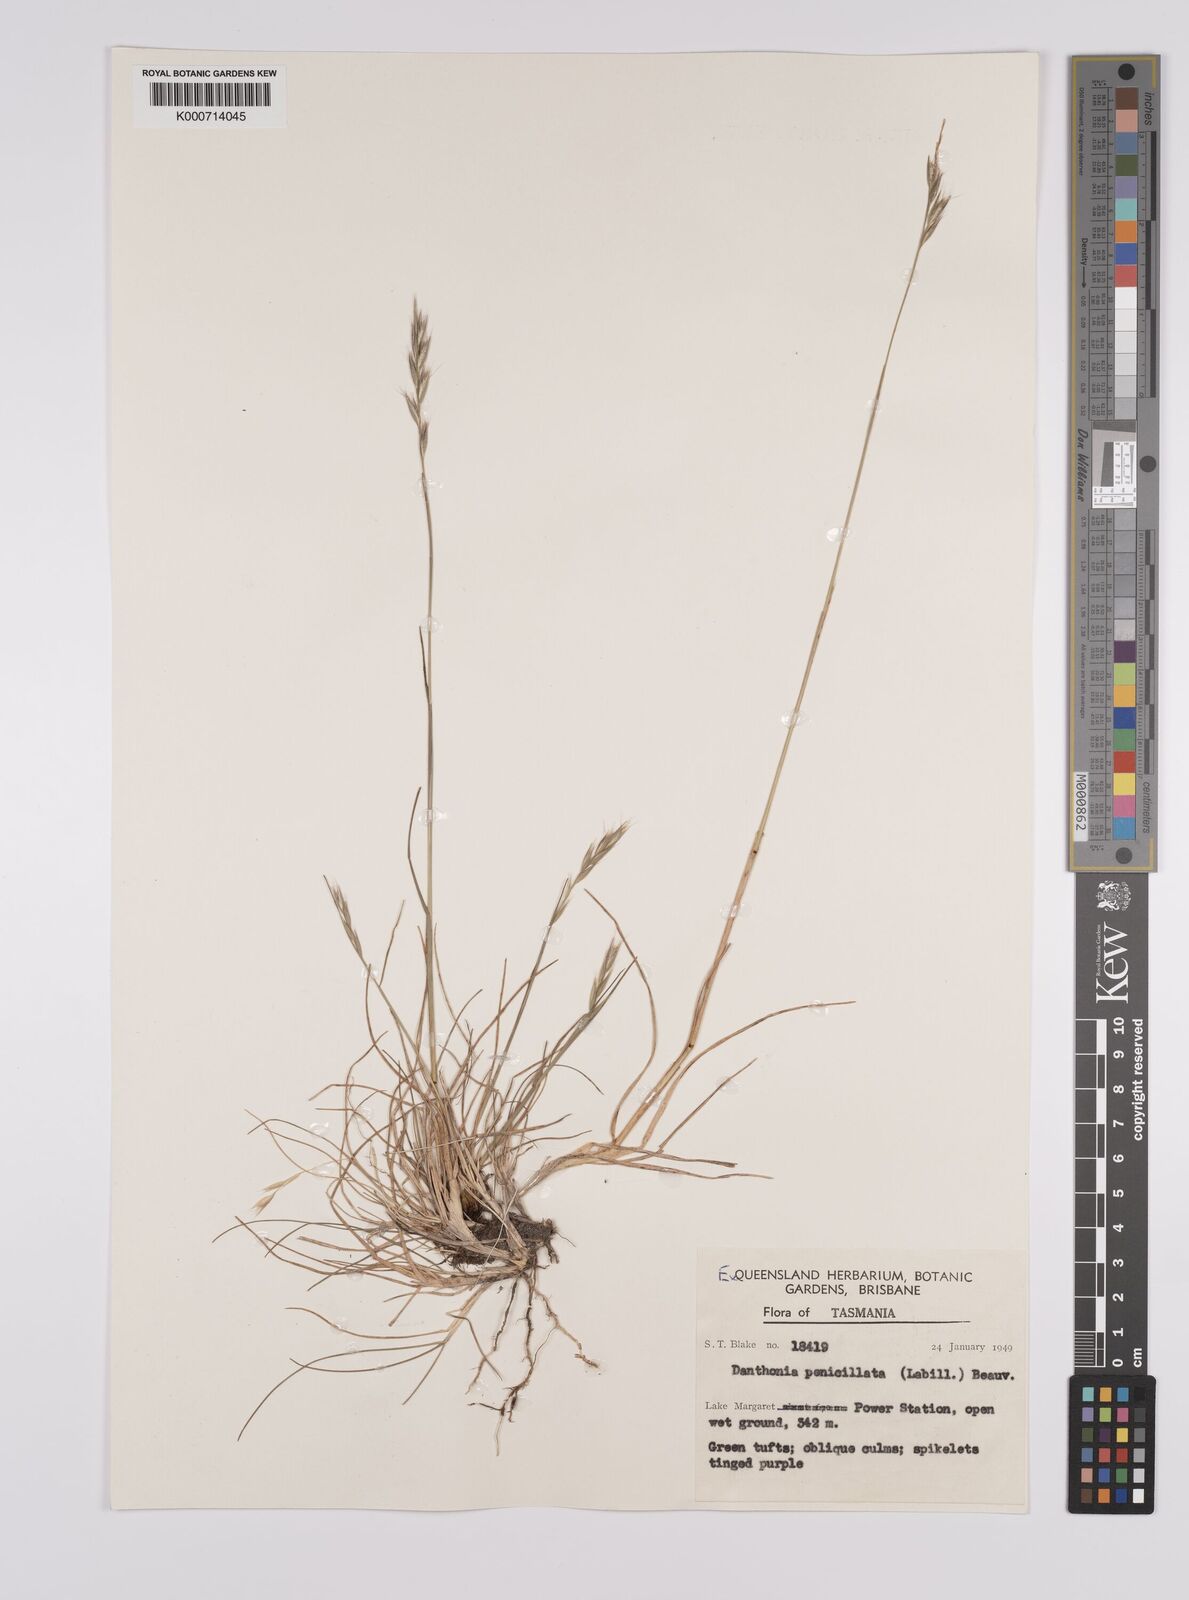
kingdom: Plantae
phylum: Tracheophyta
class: Liliopsida
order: Poales
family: Poaceae
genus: Rytidosperma
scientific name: Rytidosperma penicillatum
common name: Hairy wallaby grass
